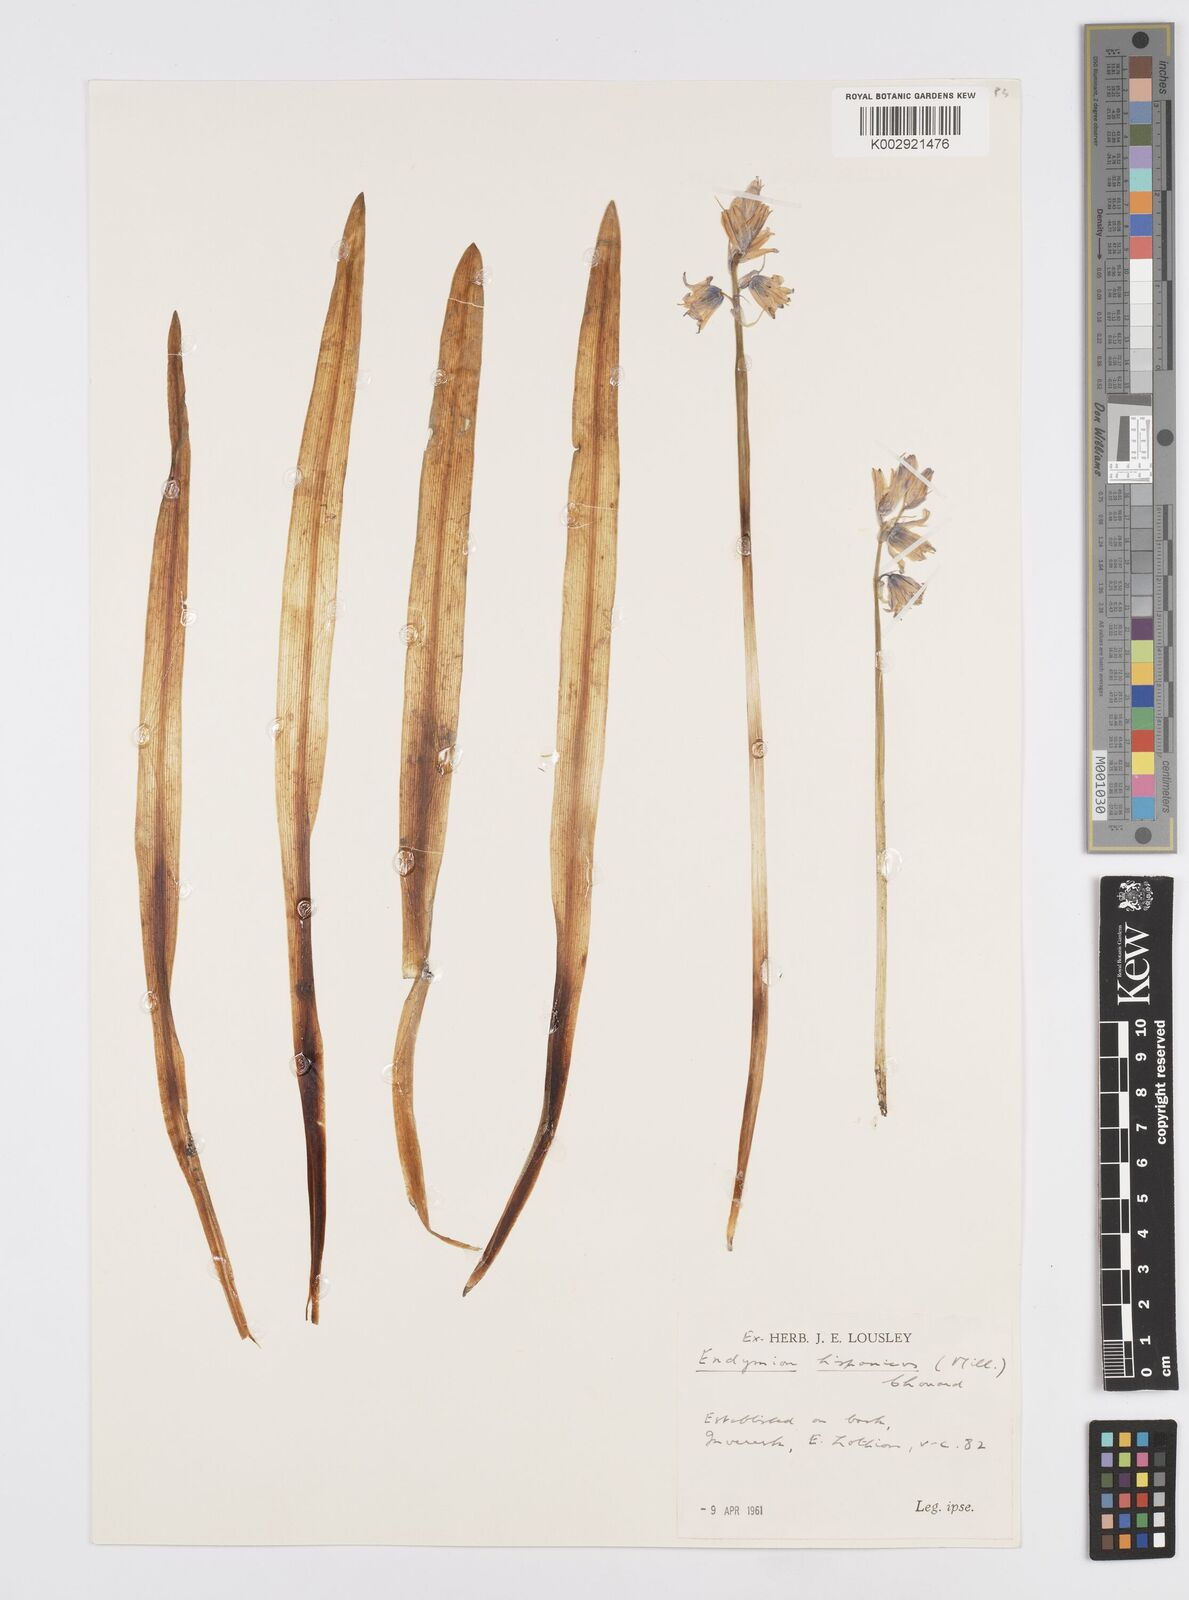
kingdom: Plantae
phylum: Tracheophyta
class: Liliopsida
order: Asparagales
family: Asparagaceae
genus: Hyacinthoides
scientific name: Hyacinthoides
